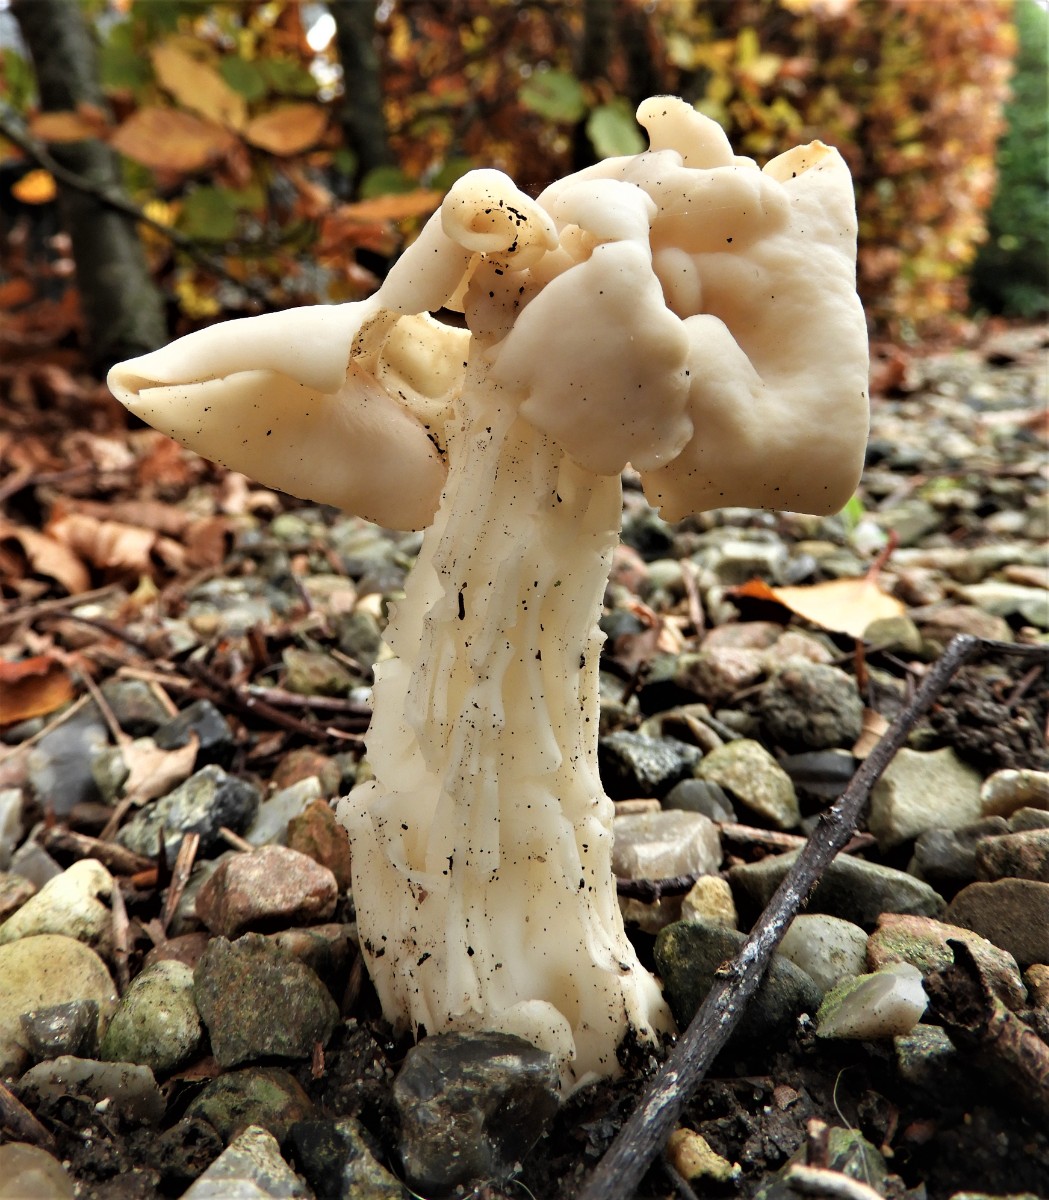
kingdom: Fungi
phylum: Ascomycota
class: Pezizomycetes
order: Pezizales
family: Helvellaceae
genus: Helvella
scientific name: Helvella crispa
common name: kruset foldhat
